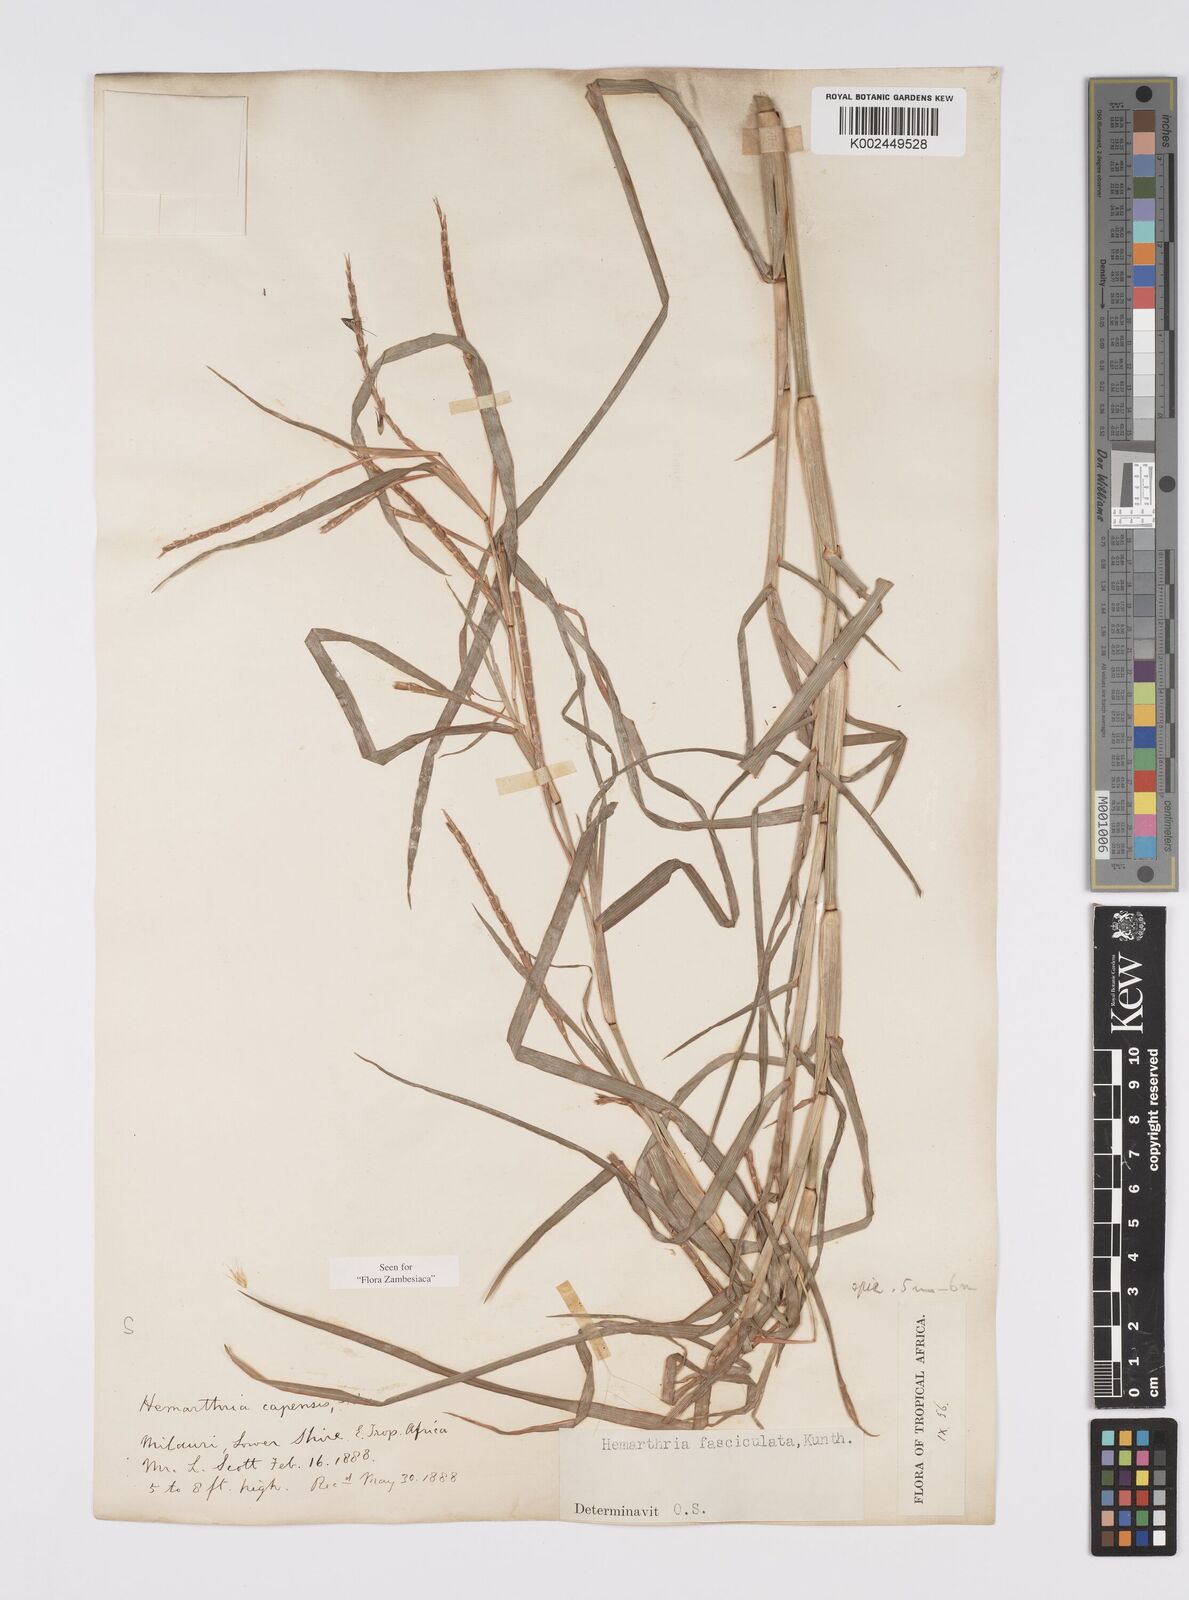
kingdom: Plantae
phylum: Tracheophyta
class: Liliopsida
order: Poales
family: Poaceae
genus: Hemarthria
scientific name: Hemarthria altissima
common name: African jointgrass
